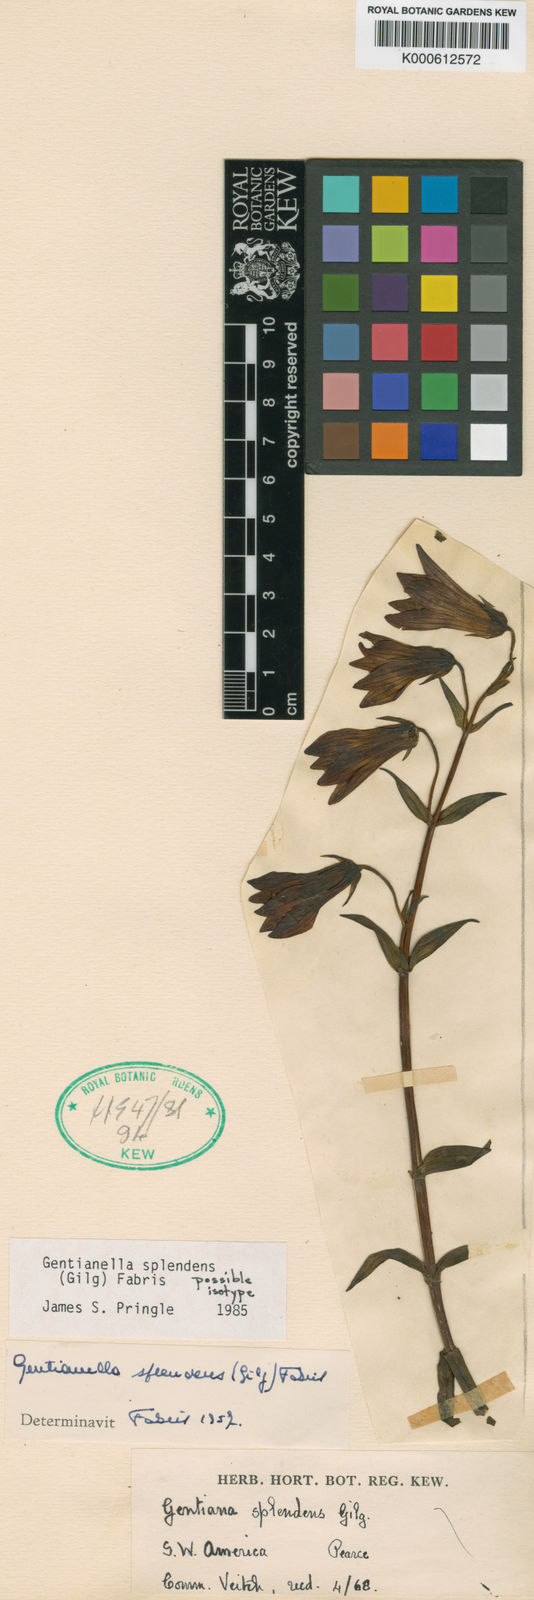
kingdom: Plantae
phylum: Tracheophyta
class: Magnoliopsida
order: Gentianales
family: Gentianaceae
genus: Gentianella
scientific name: Gentianella splendens
